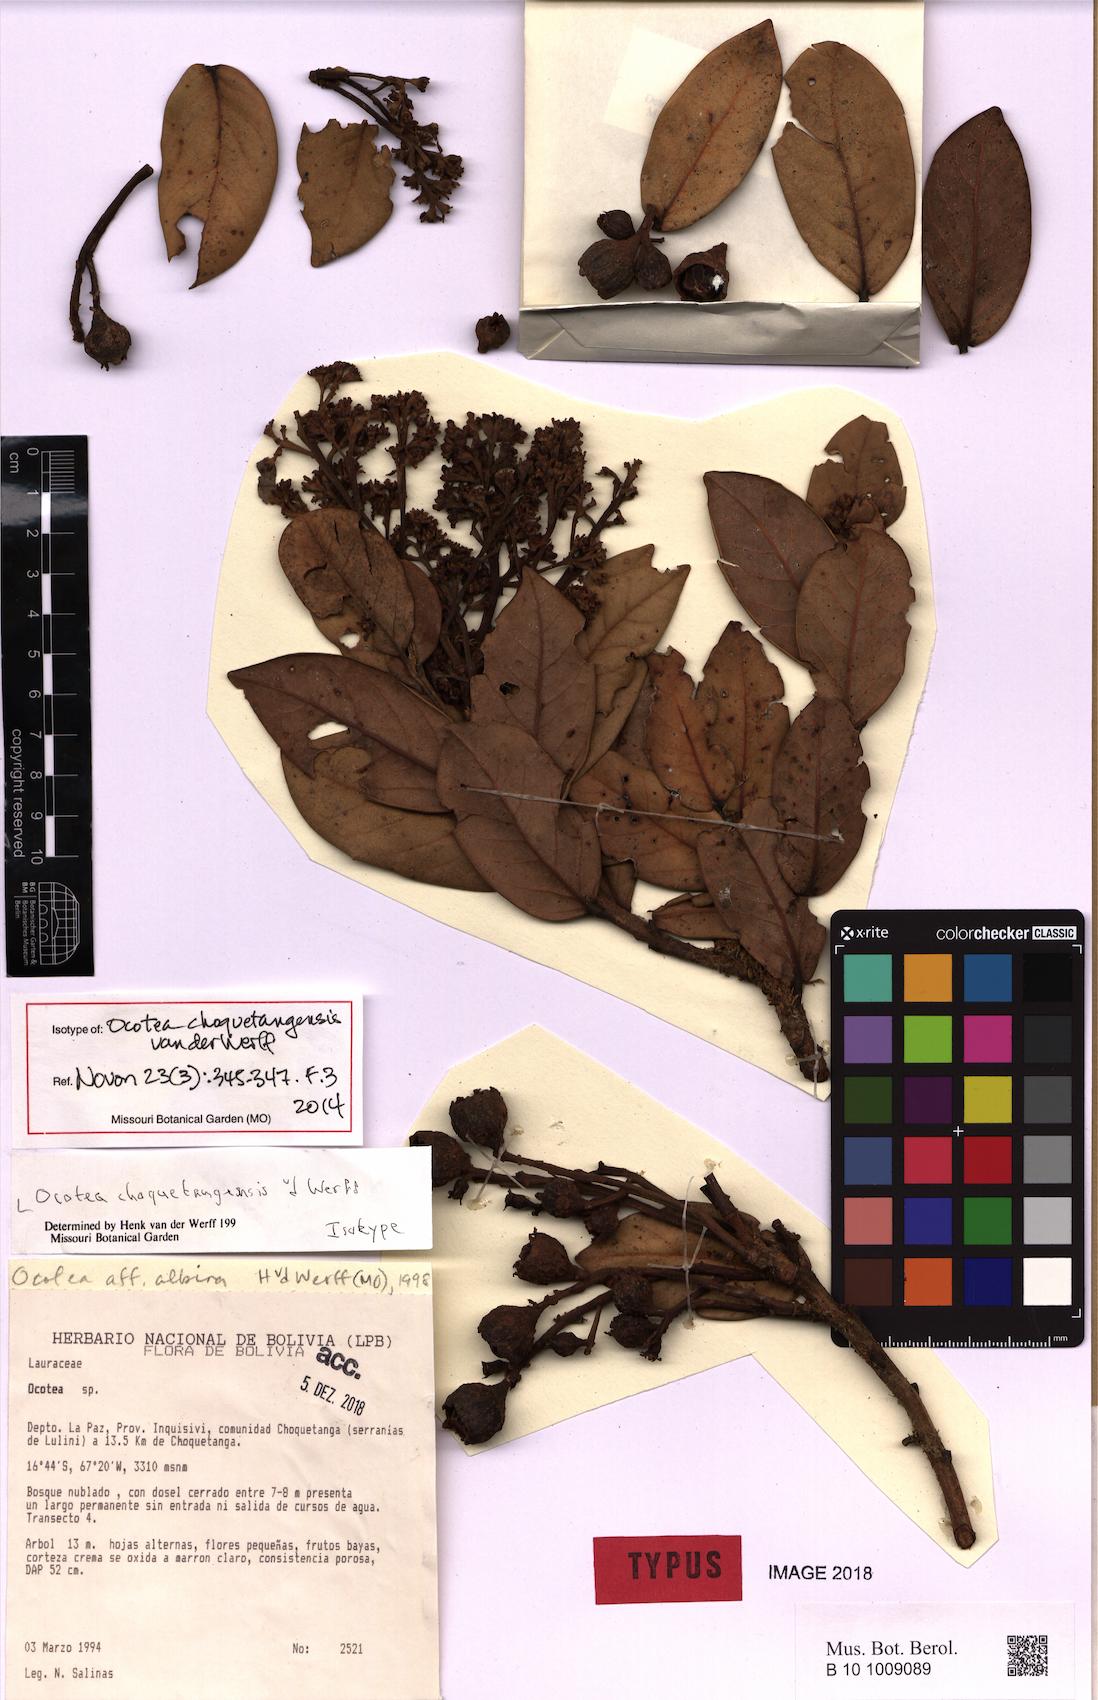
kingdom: Plantae
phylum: Tracheophyta
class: Magnoliopsida
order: Laurales
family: Lauraceae
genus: Ocotea
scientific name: Ocotea choquetangensis
